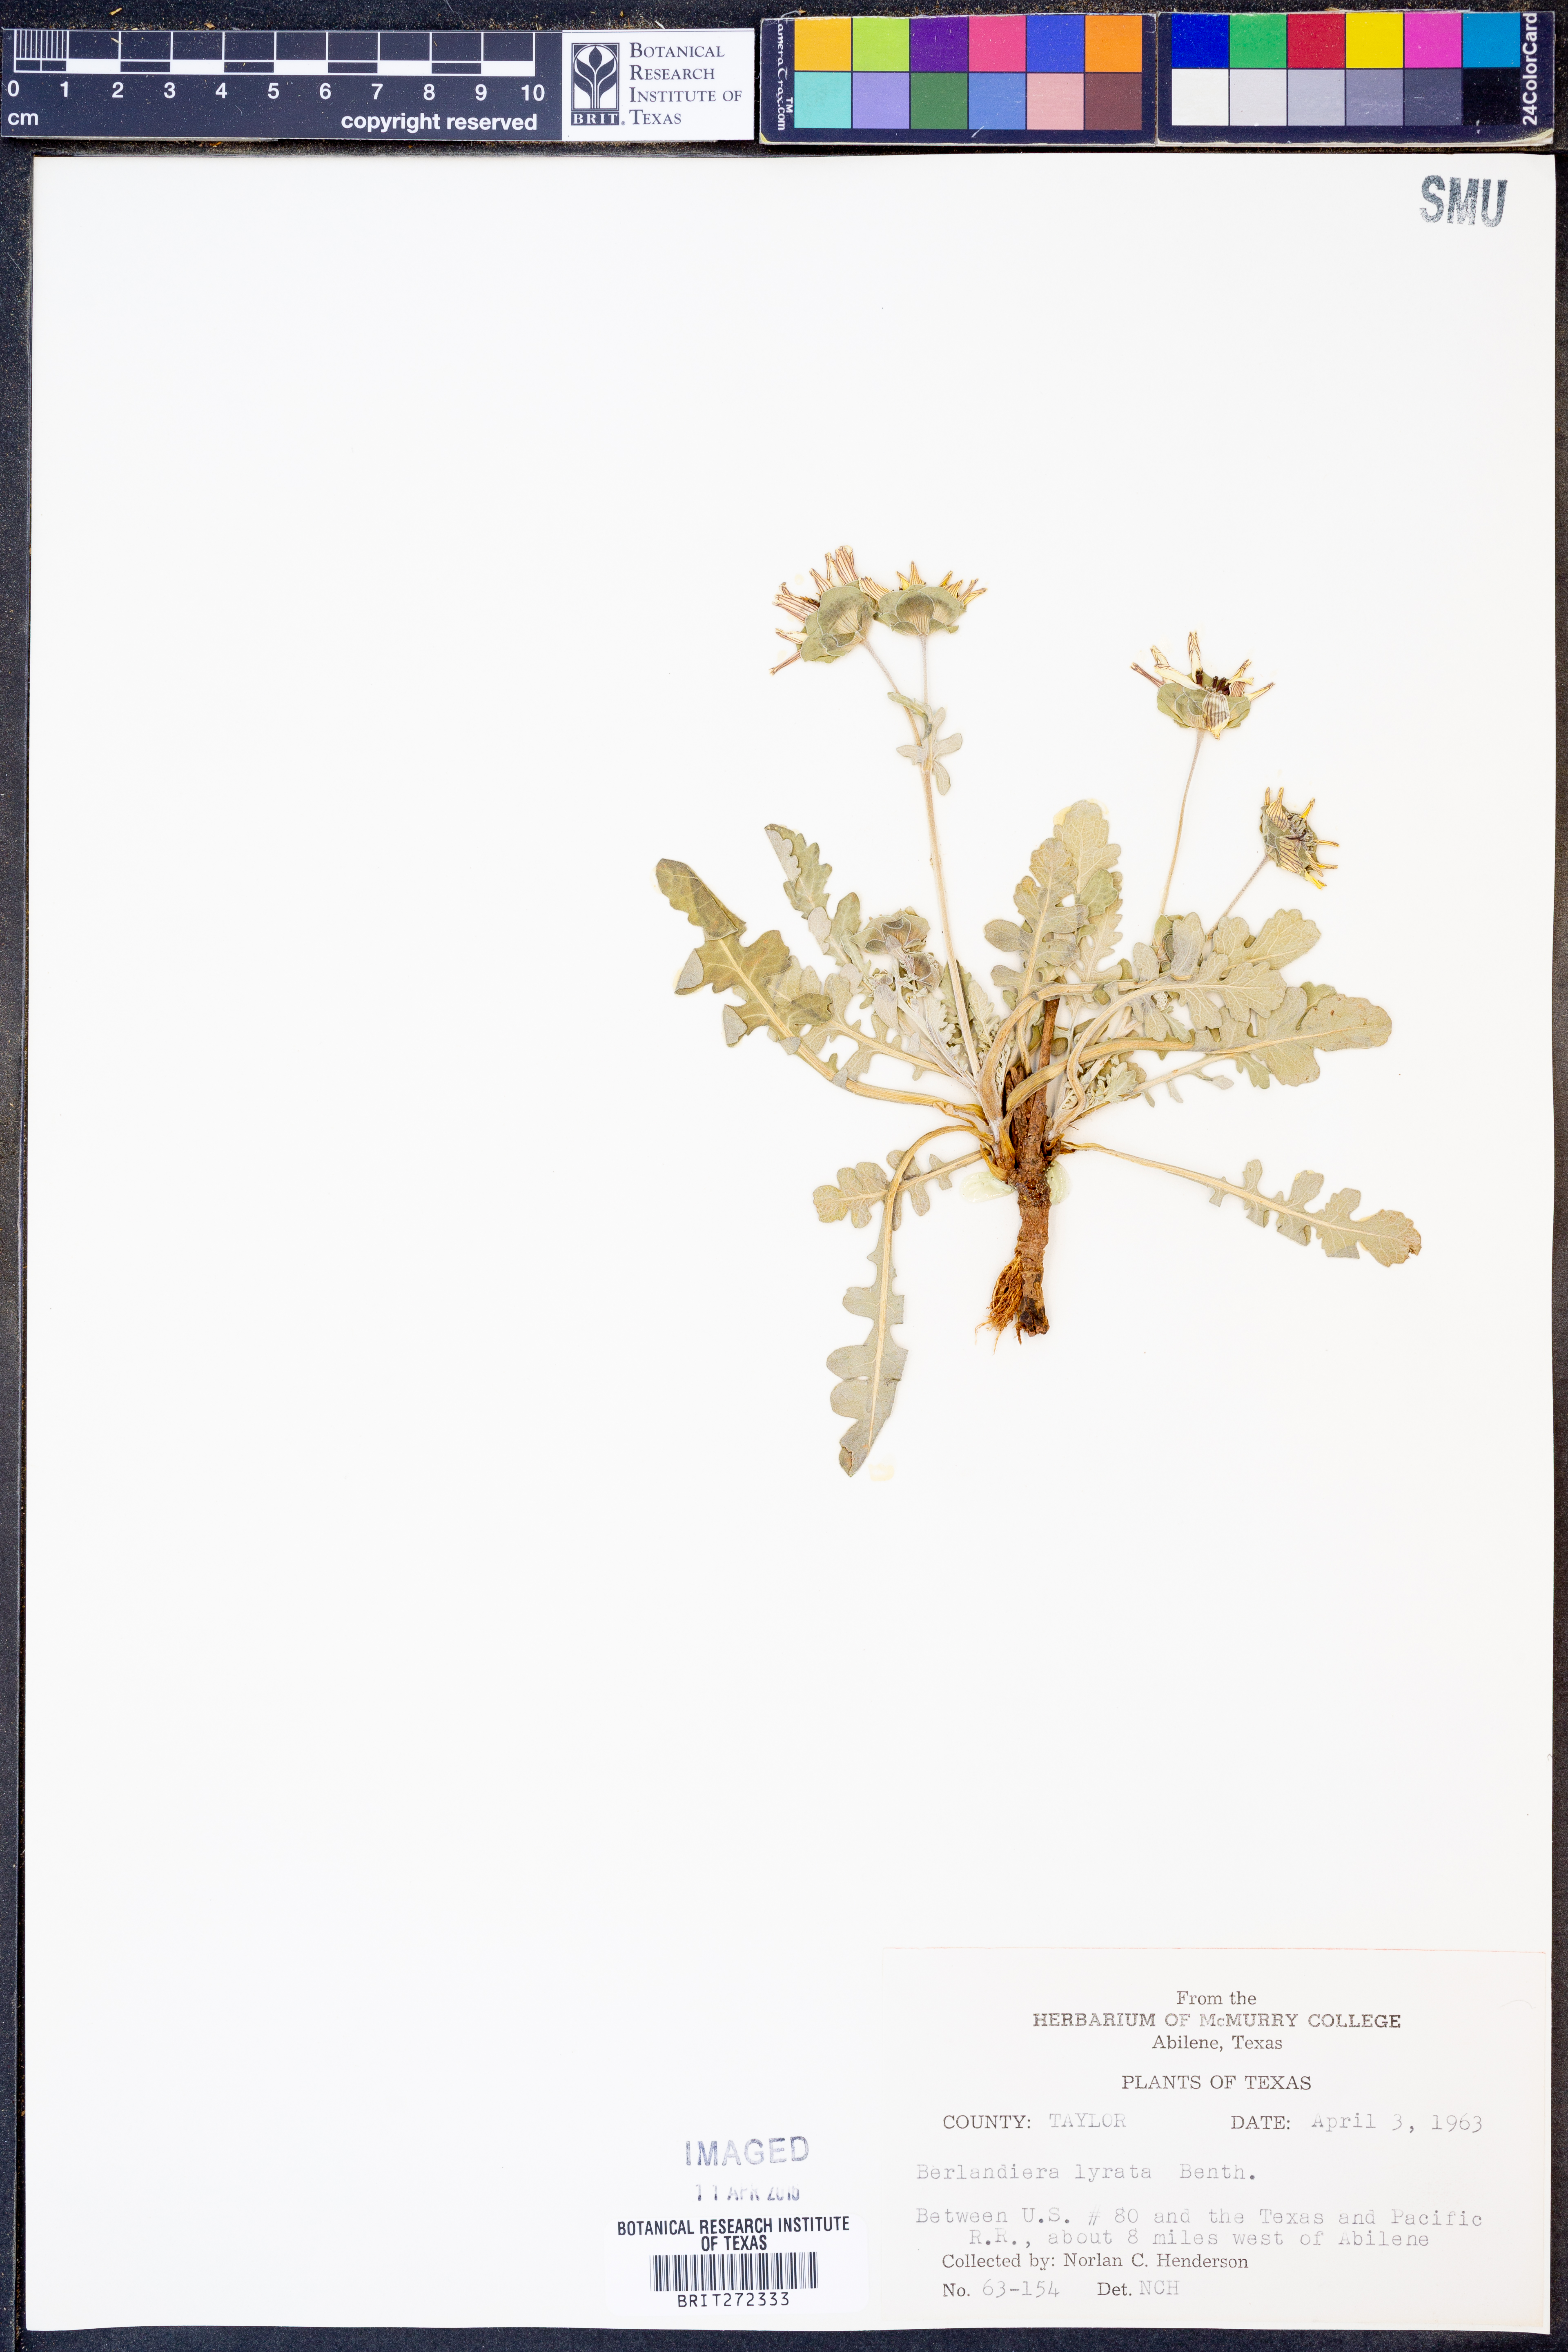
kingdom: Plantae
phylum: Tracheophyta
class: Magnoliopsida
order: Asterales
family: Asteraceae
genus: Berlandiera
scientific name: Berlandiera lyrata
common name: Chocolate-flower
